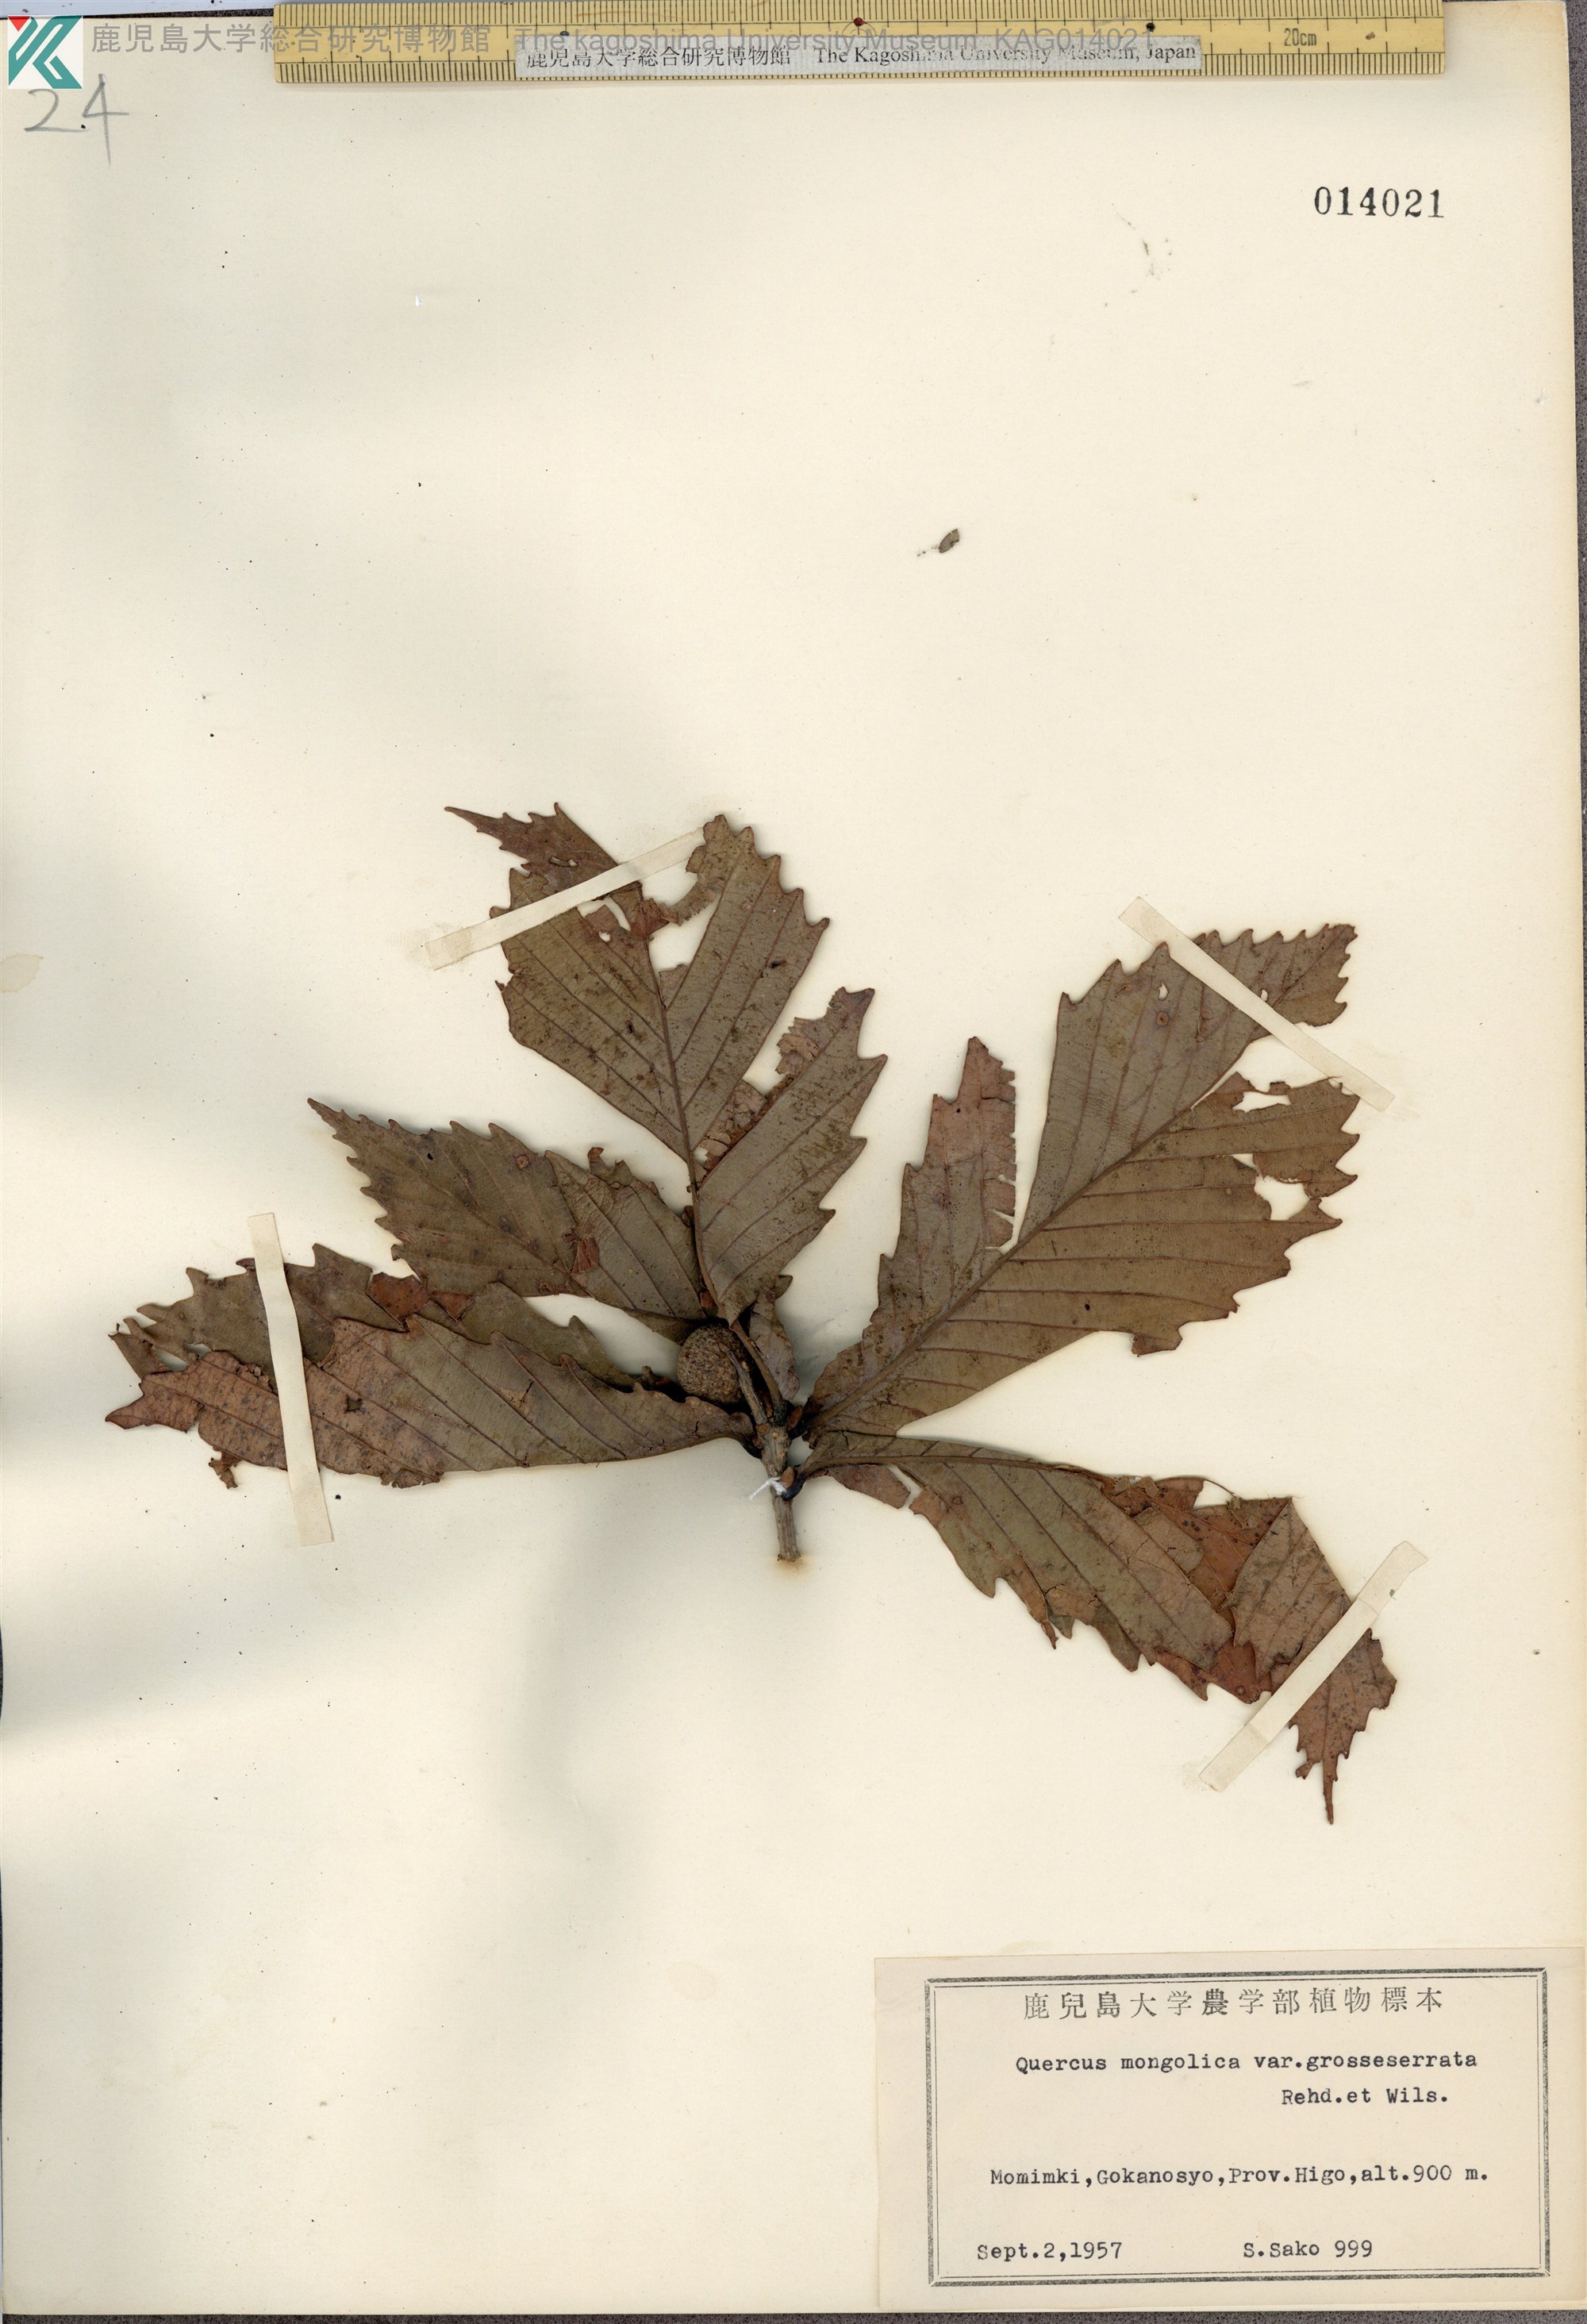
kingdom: Plantae
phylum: Tracheophyta
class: Magnoliopsida
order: Fagales
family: Fagaceae
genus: Quercus
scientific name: Quercus crispula
